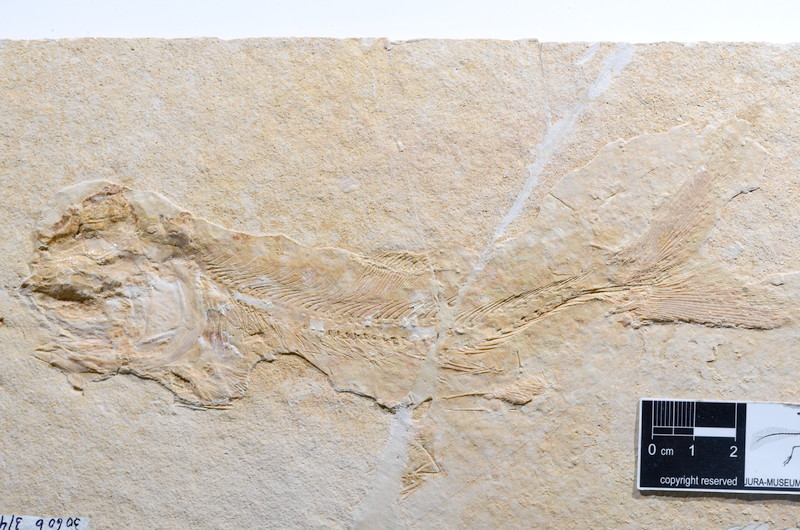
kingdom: Animalia
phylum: Chordata
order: Amiiformes
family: Caturidae
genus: Caturus
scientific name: Caturus
